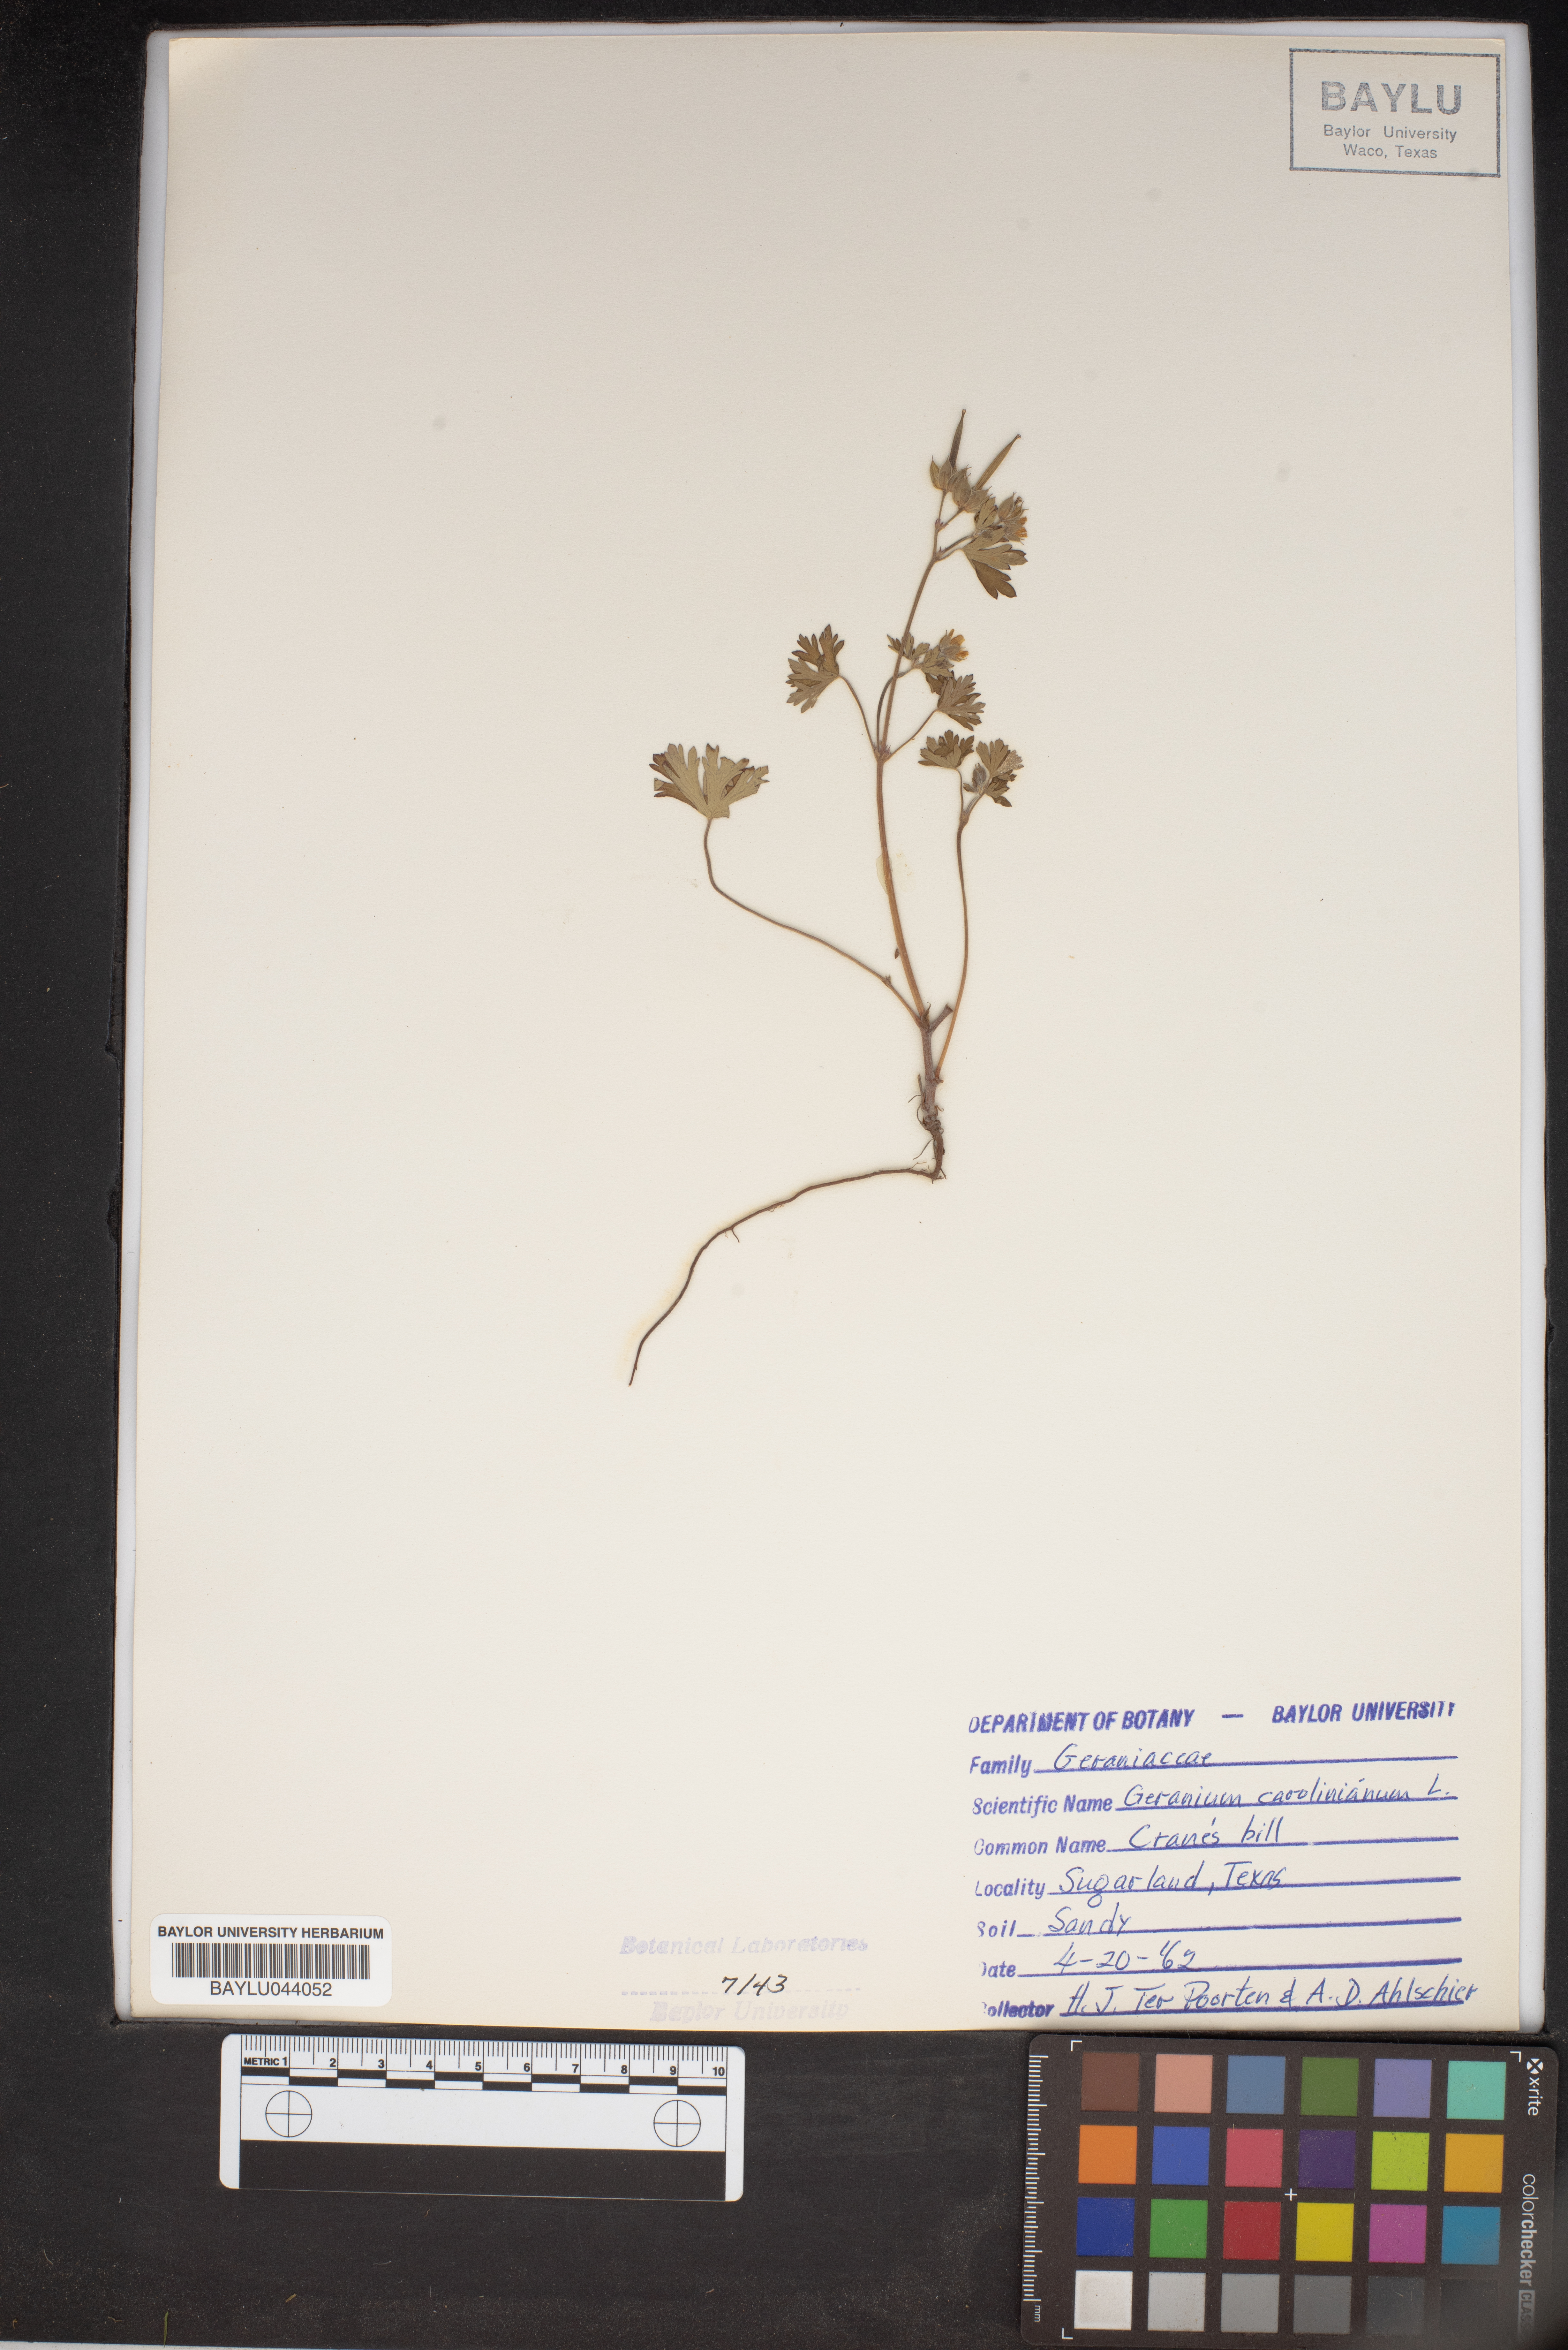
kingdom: Plantae
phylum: Tracheophyta
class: Magnoliopsida
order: Geraniales
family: Geraniaceae
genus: Geranium
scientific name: Geranium carolinianum
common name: Carolina crane's-bill
